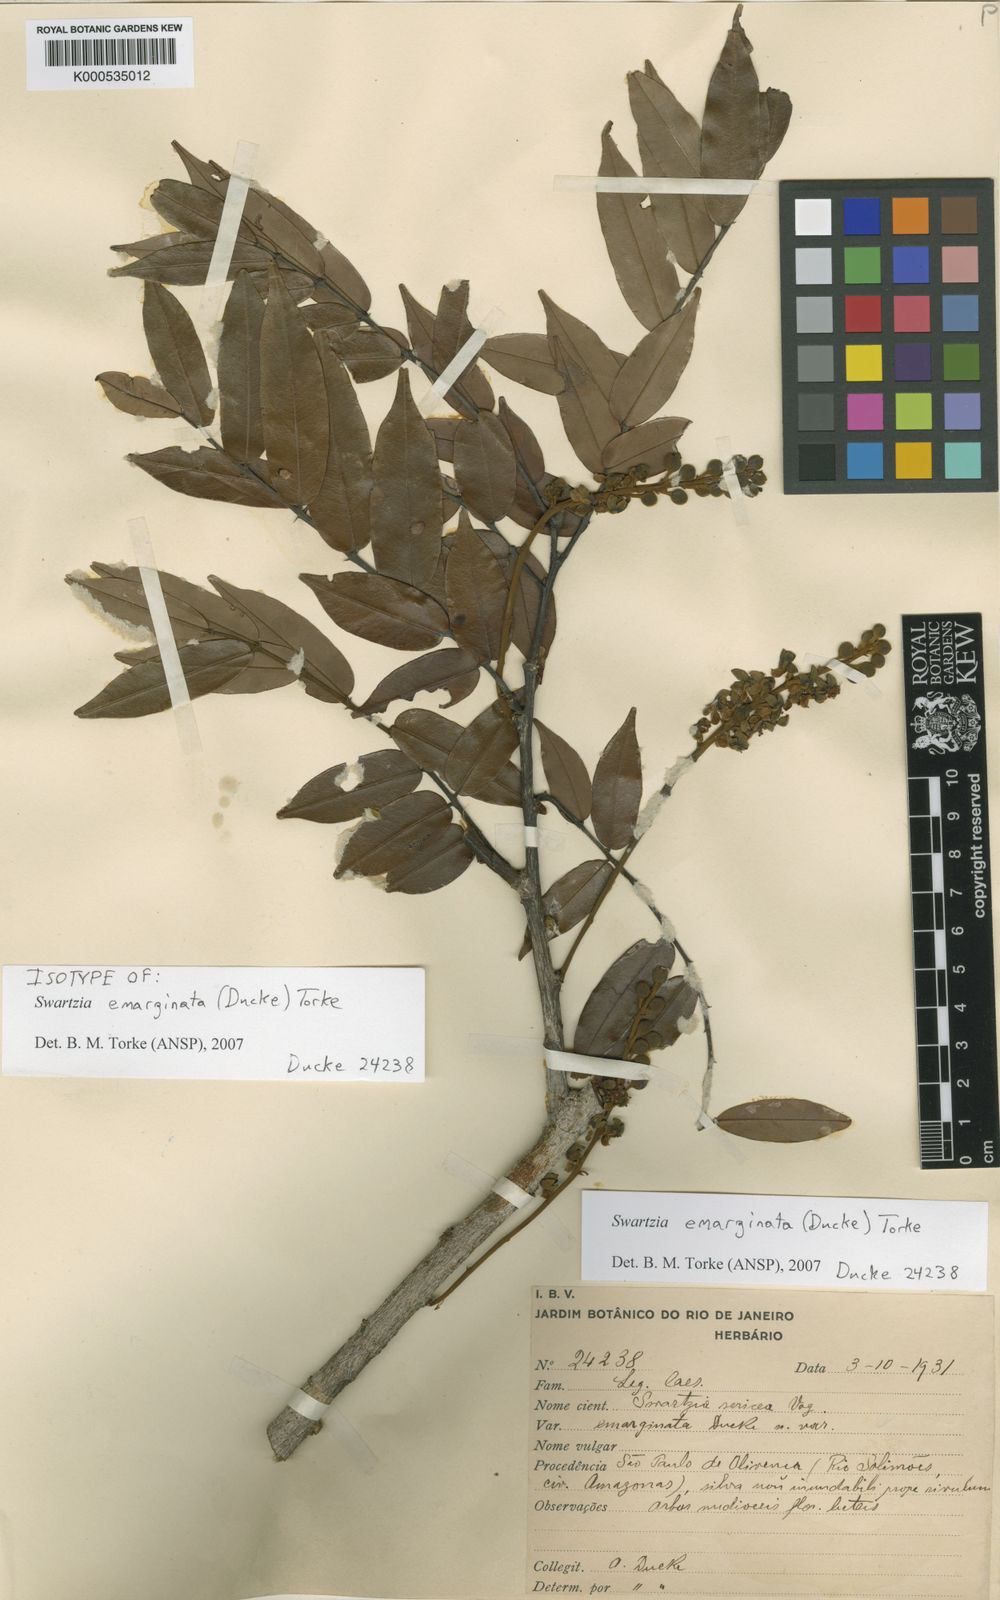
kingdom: Plantae
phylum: Tracheophyta
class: Magnoliopsida
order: Fabales
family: Fabaceae
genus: Swartzia
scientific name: Swartzia emarginata
